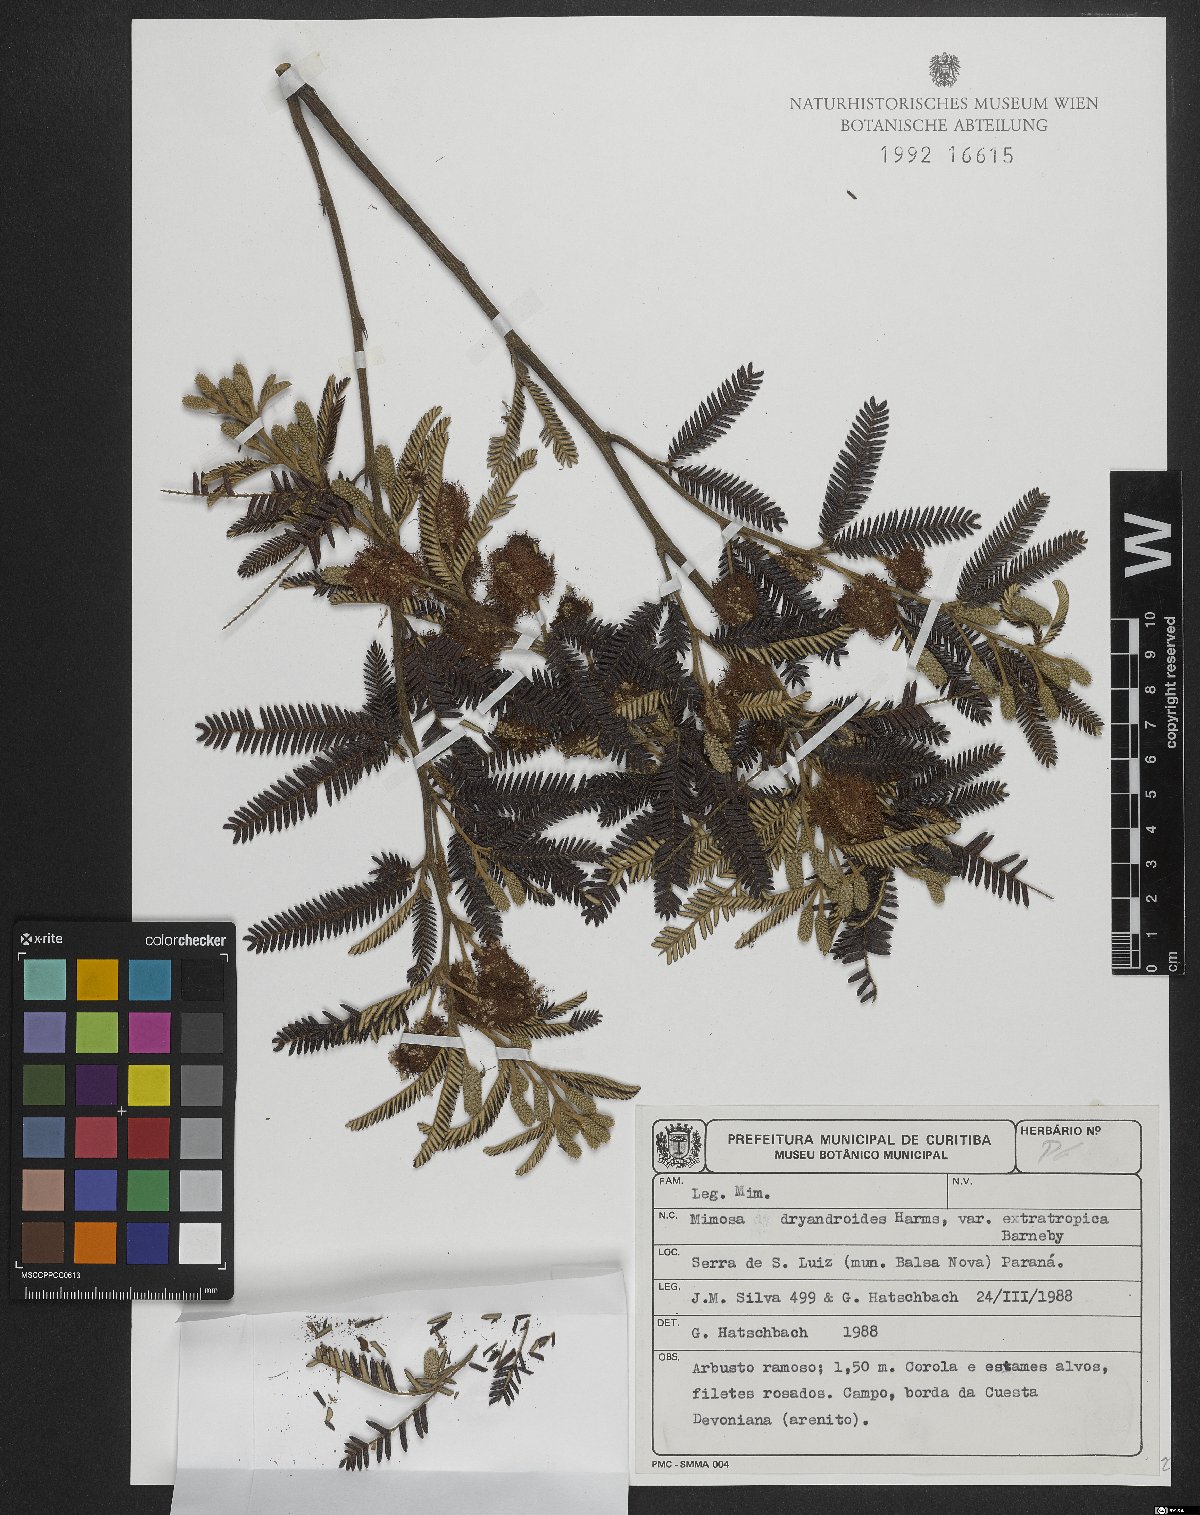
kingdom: Plantae
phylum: Tracheophyta
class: Magnoliopsida
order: Fabales
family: Fabaceae
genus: Mimosa
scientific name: Mimosa dryandroides
